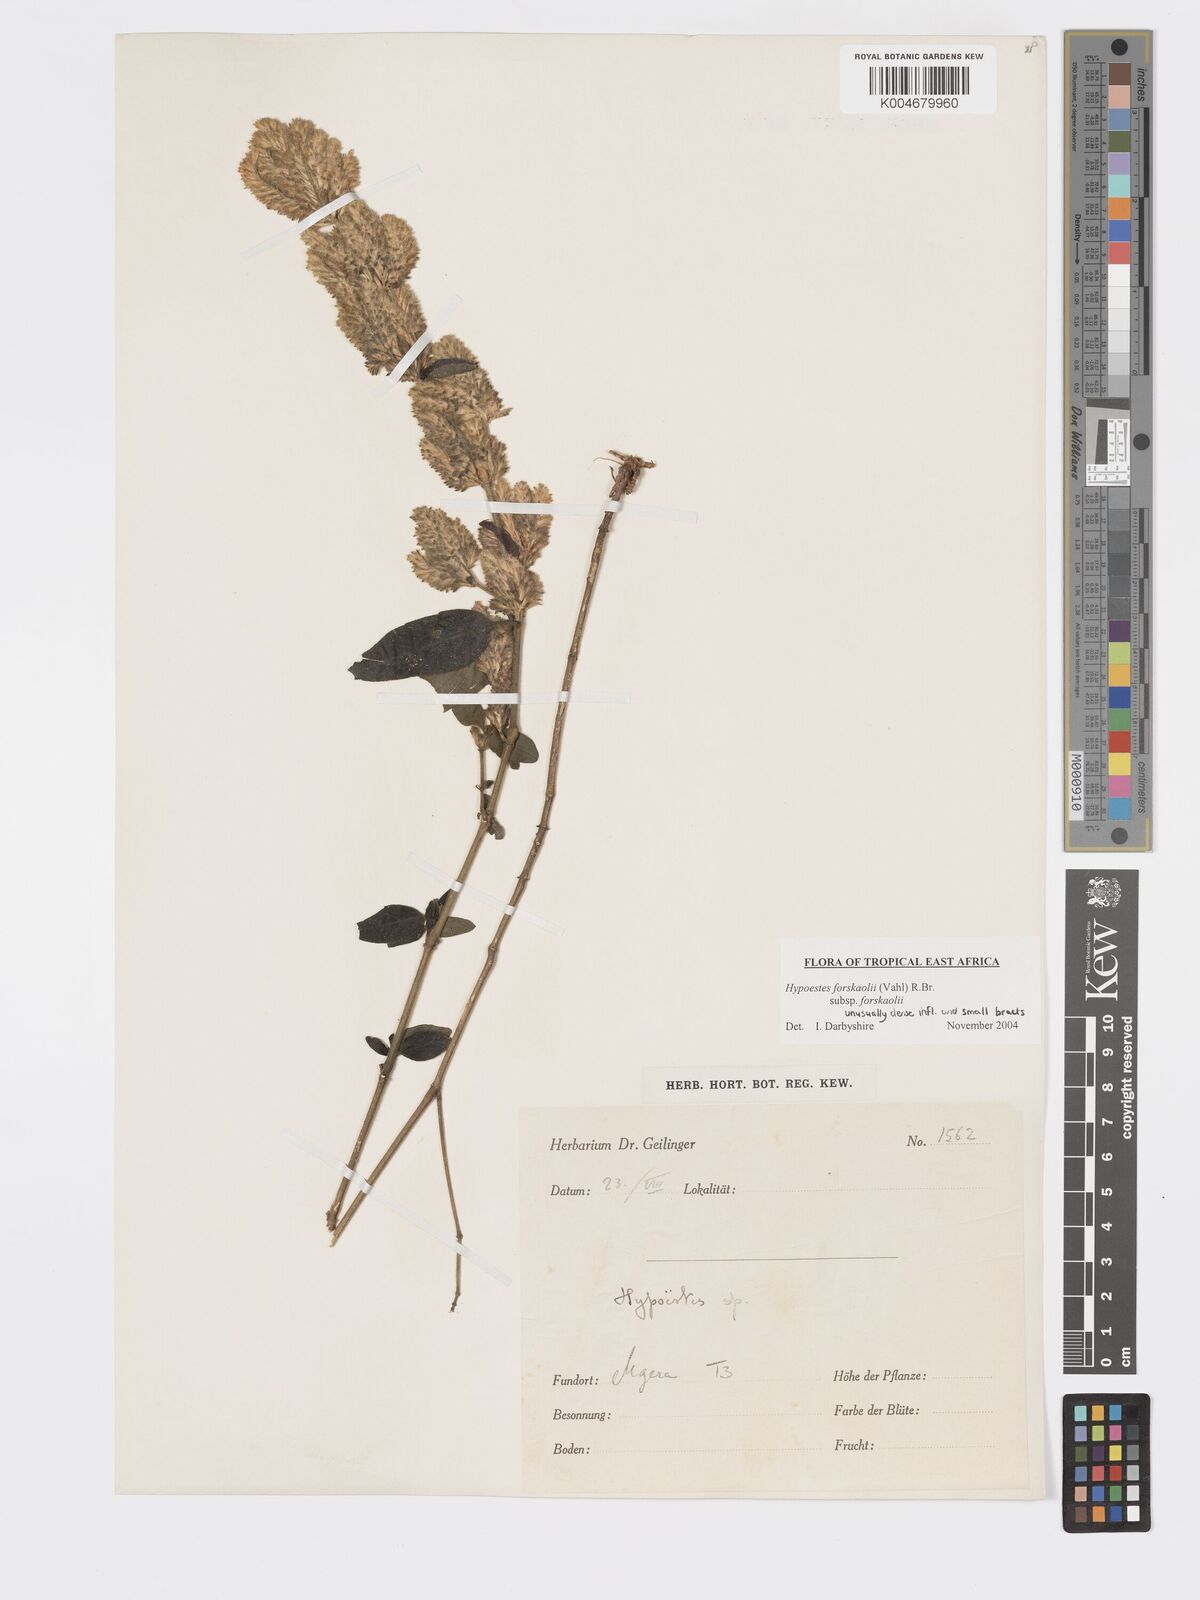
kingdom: Plantae
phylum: Tracheophyta
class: Magnoliopsida
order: Lamiales
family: Acanthaceae
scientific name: Acanthaceae
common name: Acanthaceae
